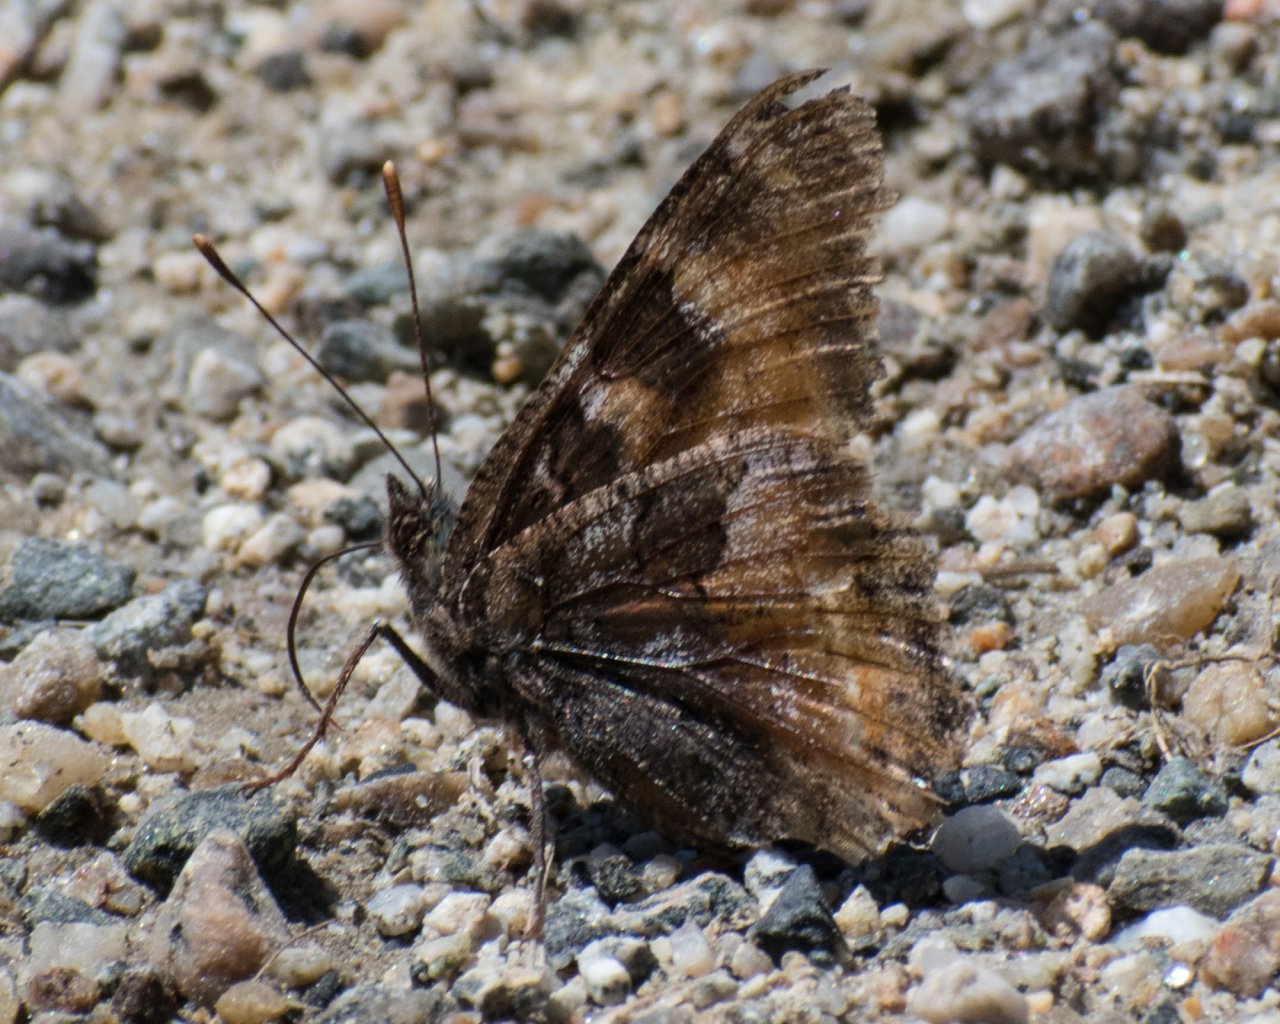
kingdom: Animalia
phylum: Arthropoda
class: Insecta
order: Lepidoptera
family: Nymphalidae
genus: Nymphalis
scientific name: Nymphalis californica
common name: California Tortoiseshell
